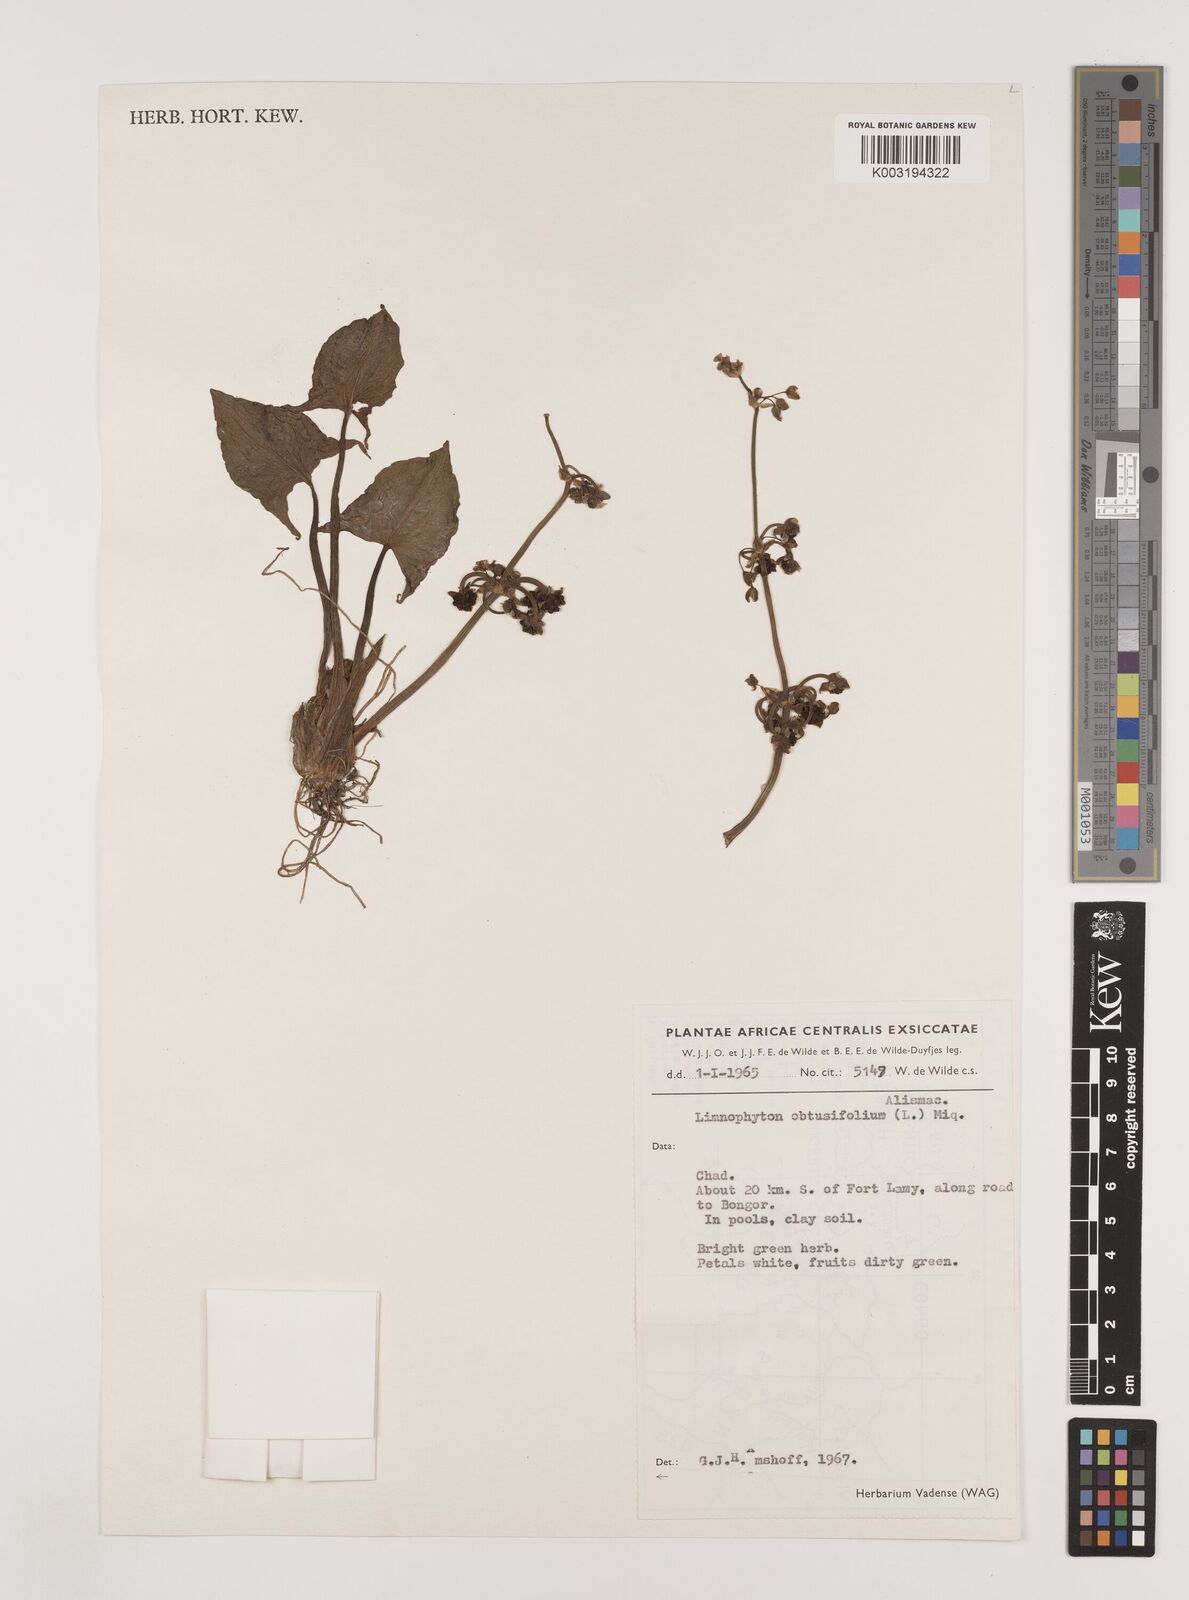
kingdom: Plantae
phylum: Tracheophyta
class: Liliopsida
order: Alismatales
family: Alismataceae
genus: Limnophyton
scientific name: Limnophyton obtusifolium
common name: Arrow head
